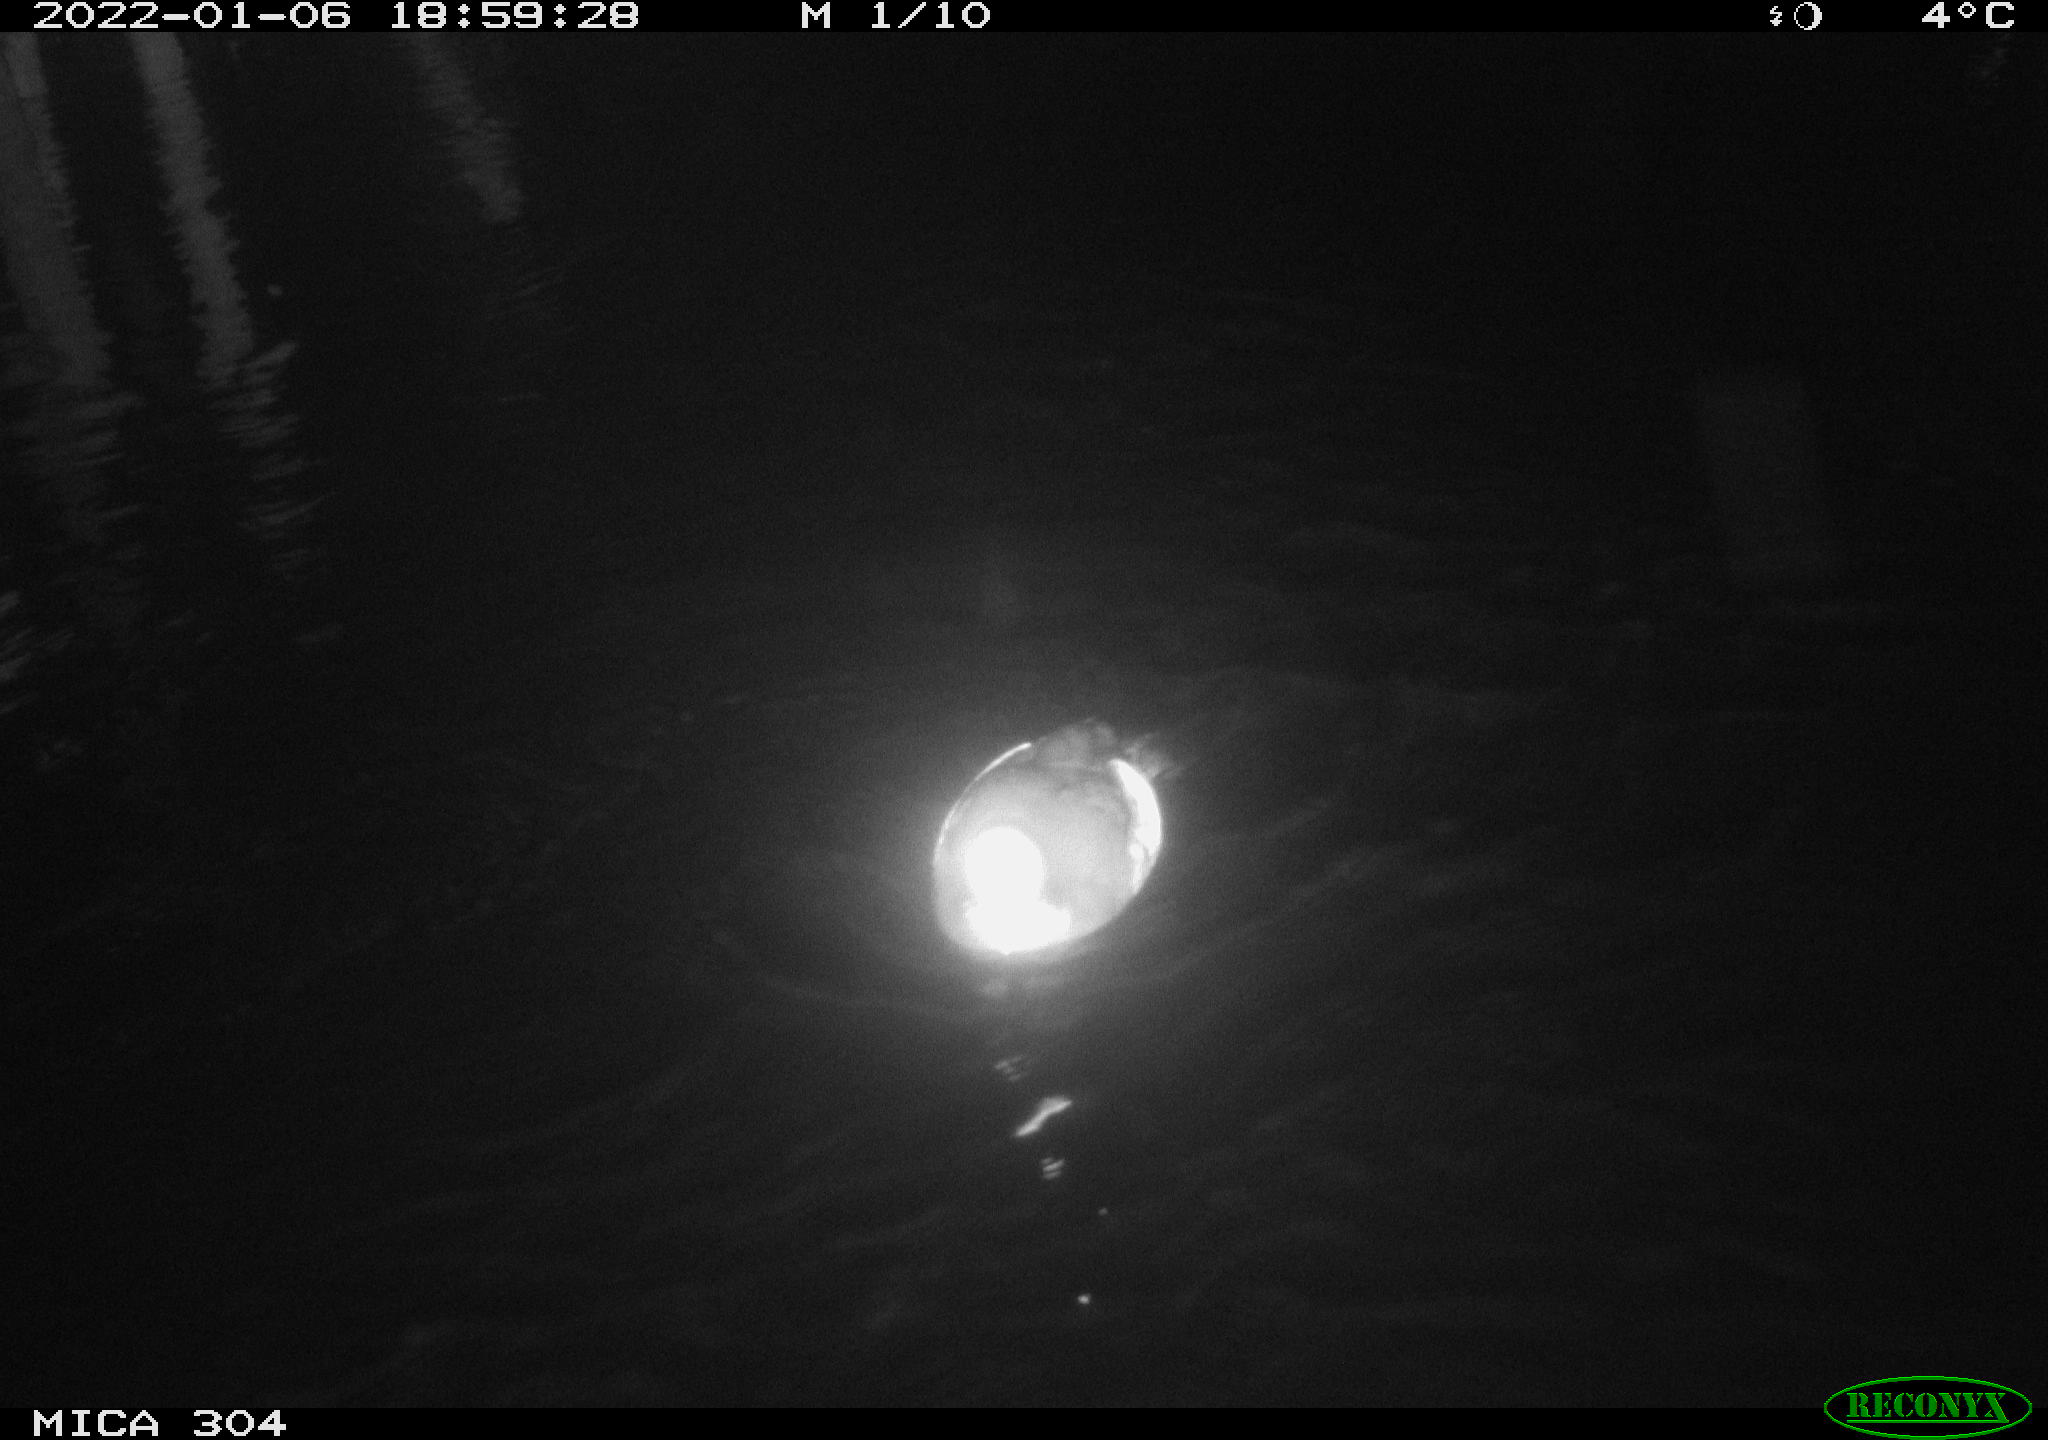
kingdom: Animalia
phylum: Chordata
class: Aves
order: Anseriformes
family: Anatidae
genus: Anas
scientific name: Anas
